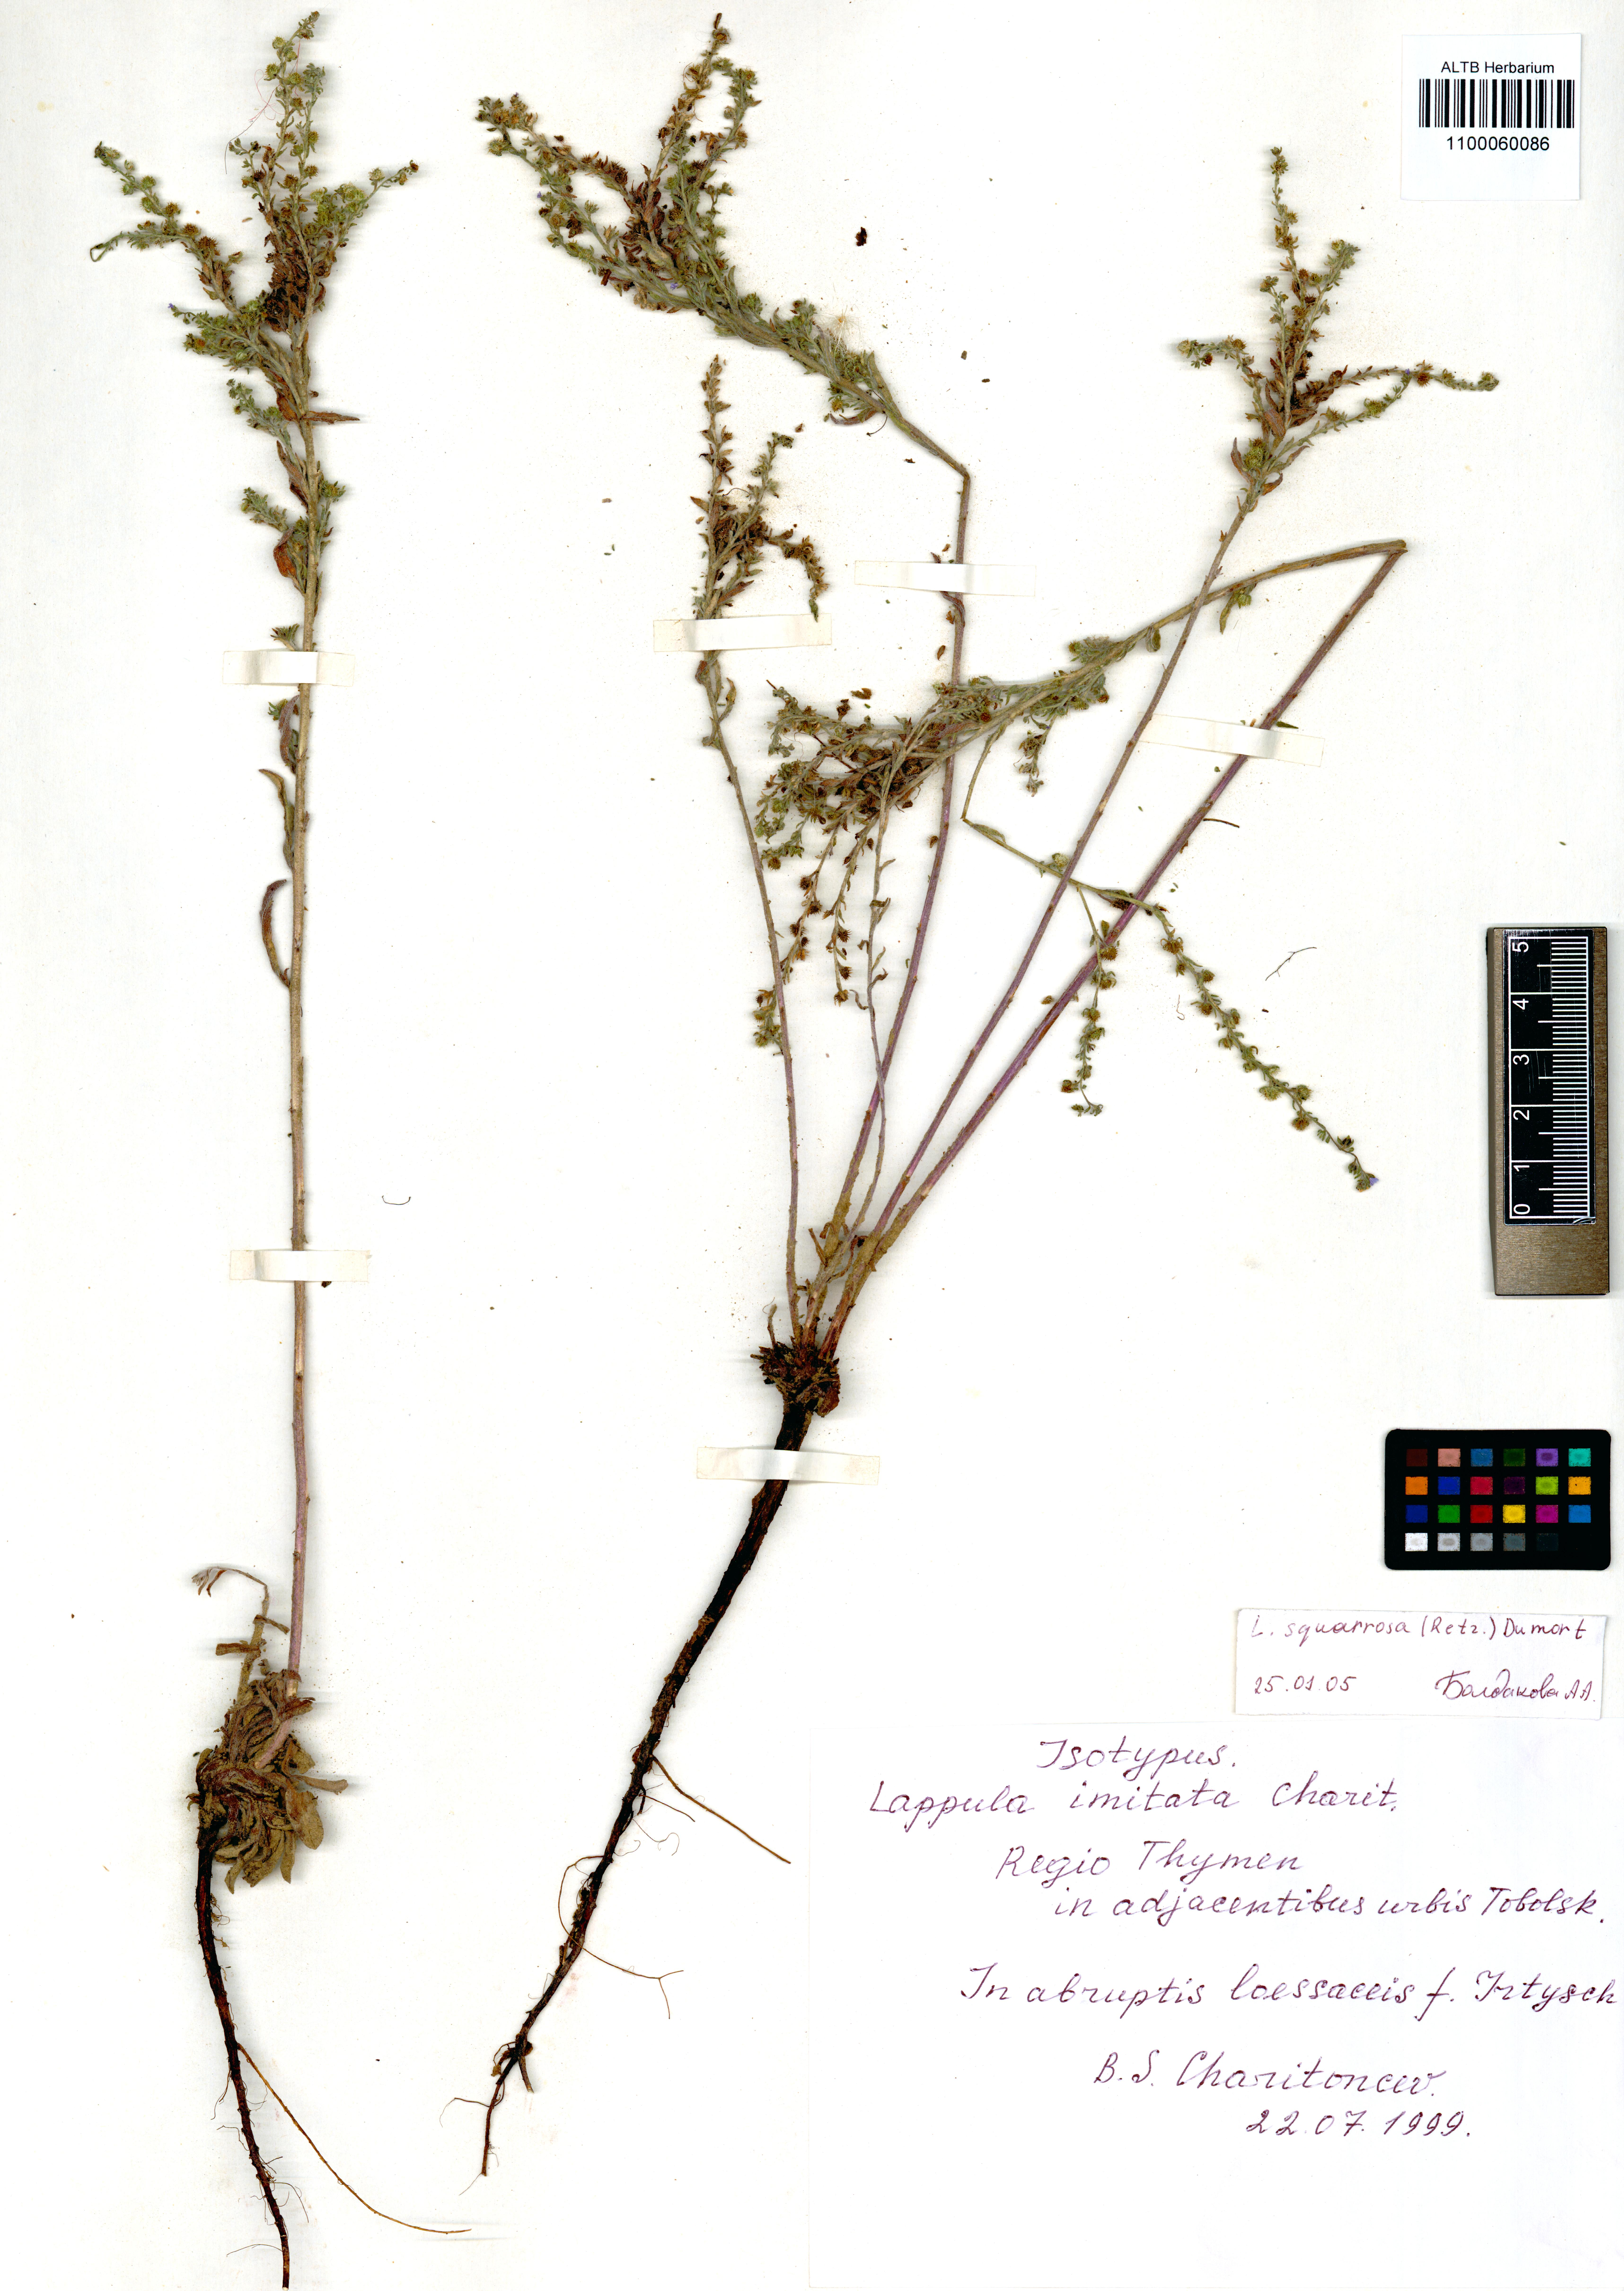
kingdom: Plantae
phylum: Tracheophyta
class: Magnoliopsida
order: Boraginales
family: Boraginaceae
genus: Lappula
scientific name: Lappula squarrosa
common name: European stickseed
